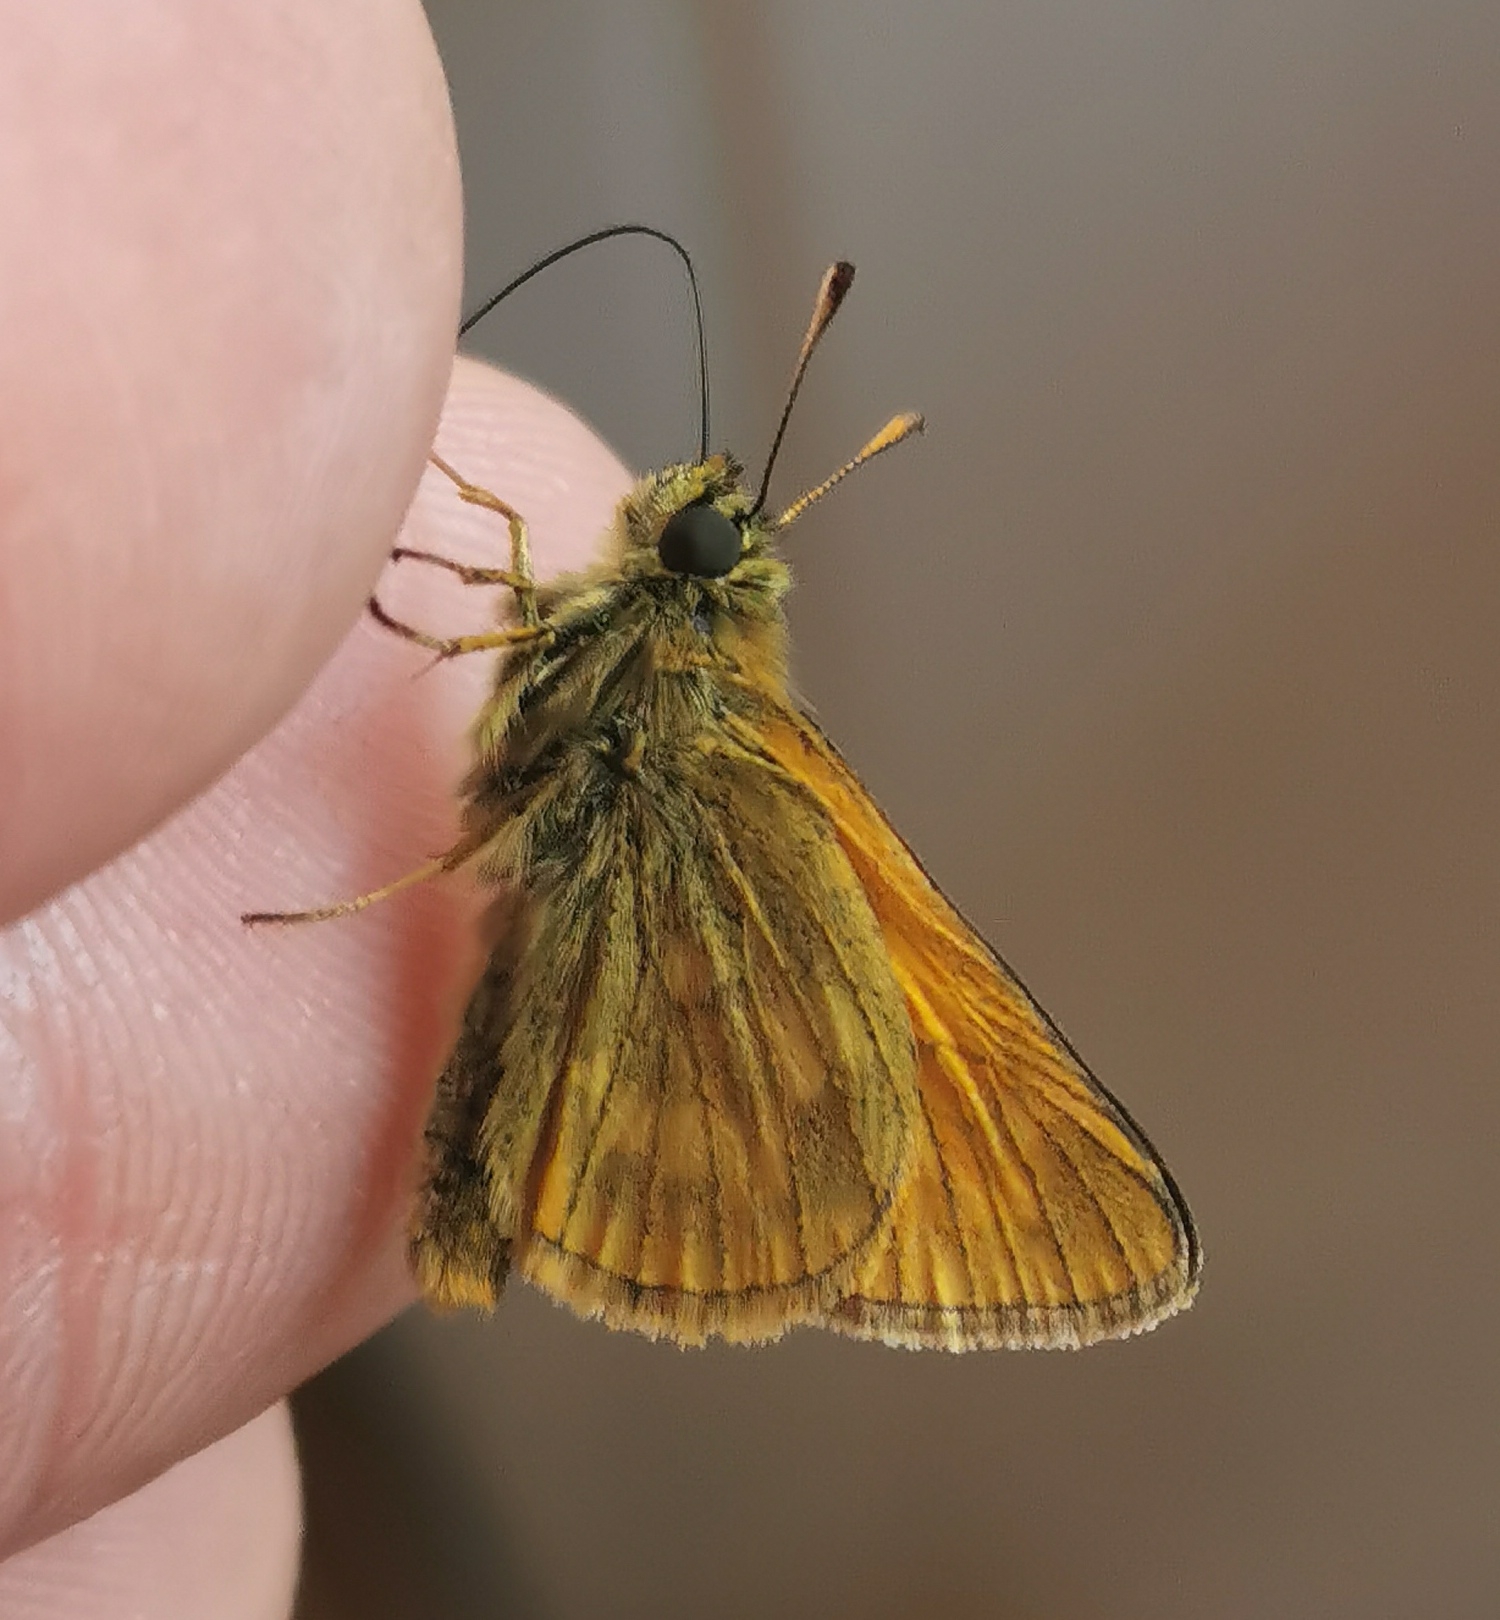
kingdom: Animalia
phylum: Arthropoda
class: Insecta
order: Lepidoptera
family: Hesperiidae
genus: Ochlodes
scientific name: Ochlodes venata
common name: Stor bredpande
